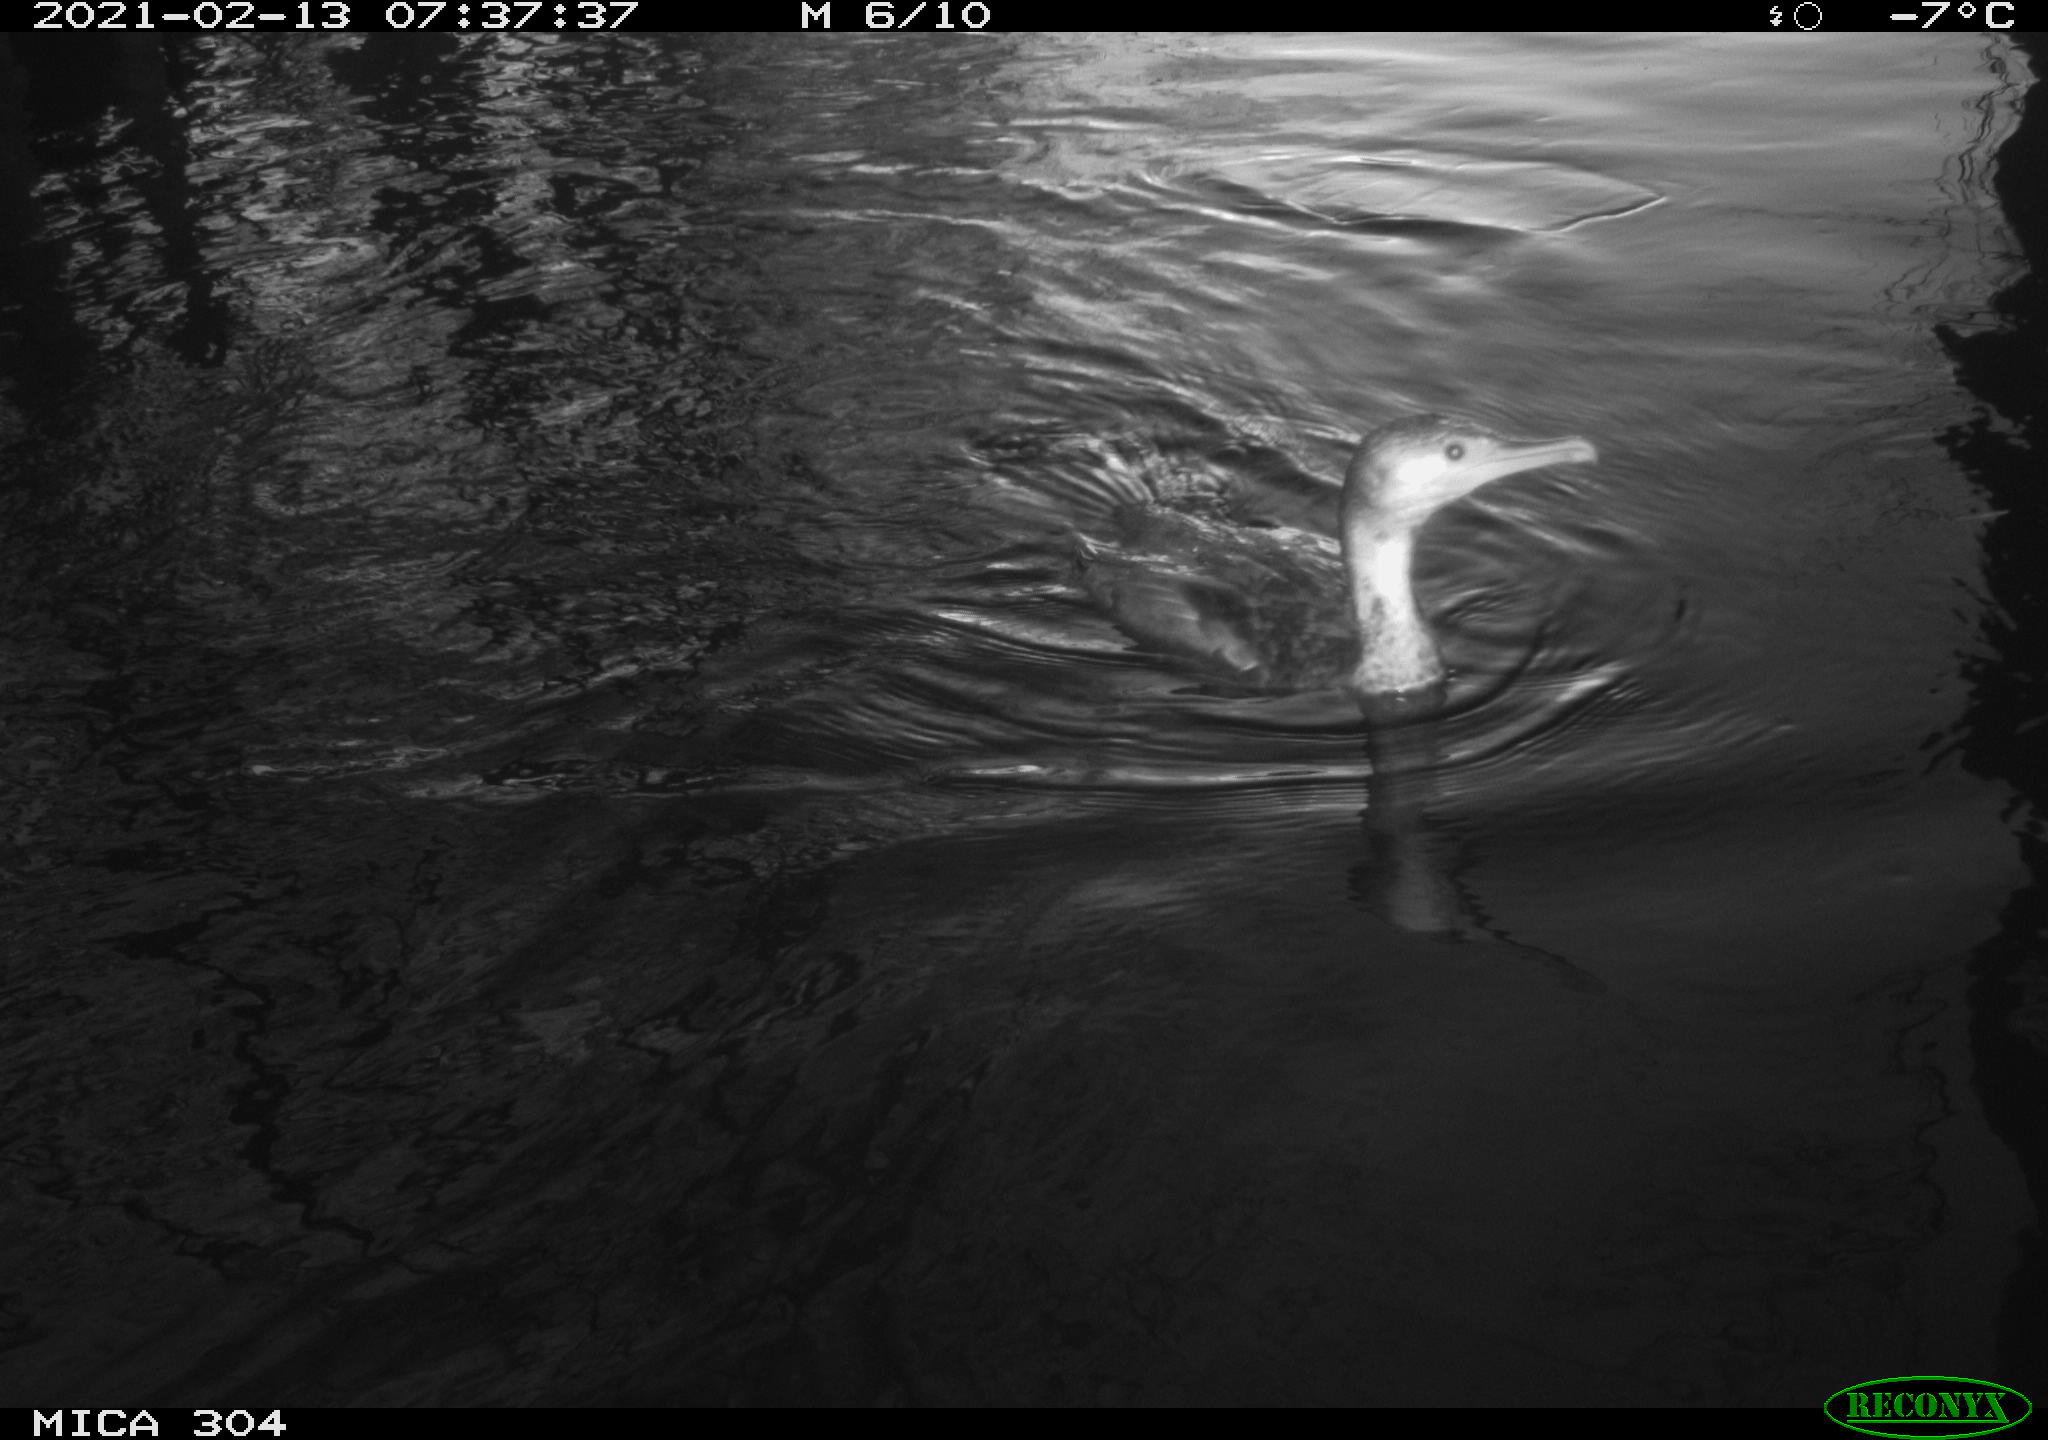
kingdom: Animalia
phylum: Chordata
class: Aves
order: Suliformes
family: Phalacrocoracidae
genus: Phalacrocorax
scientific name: Phalacrocorax carbo
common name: Great cormorant
